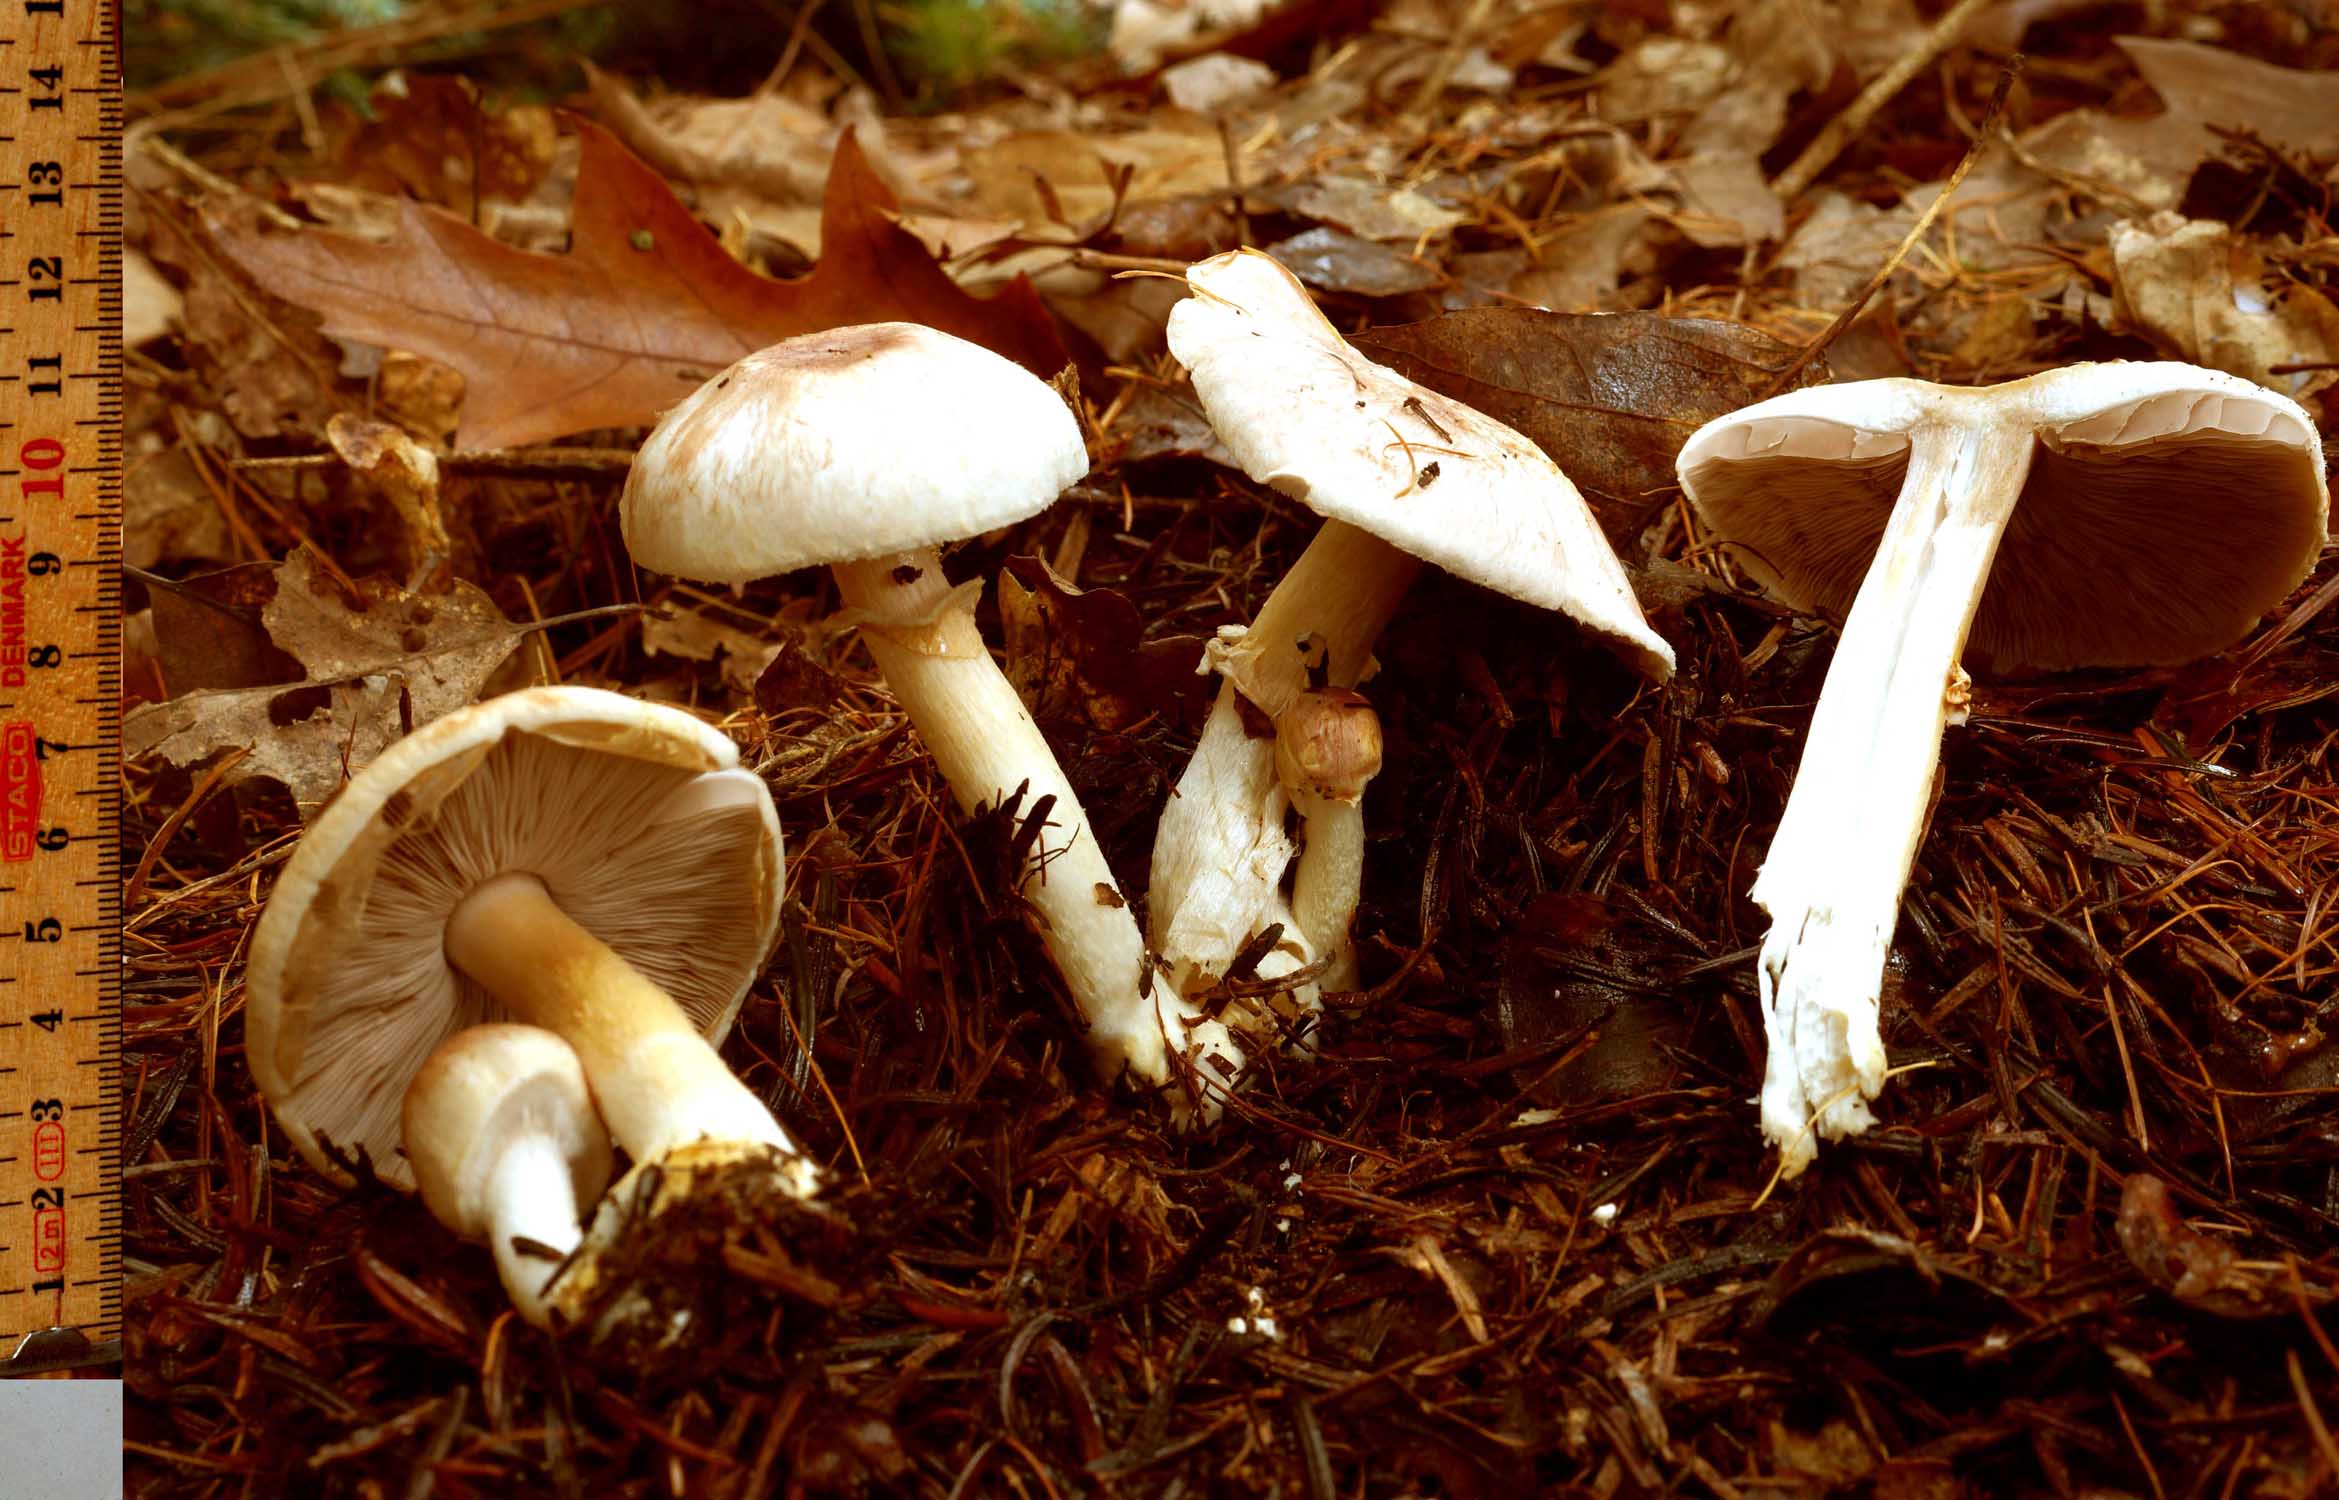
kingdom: Fungi
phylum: Basidiomycota
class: Agaricomycetes
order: Agaricales
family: Agaricaceae
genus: Agaricus
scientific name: Agaricus dulcidulus
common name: blegrød champignon
